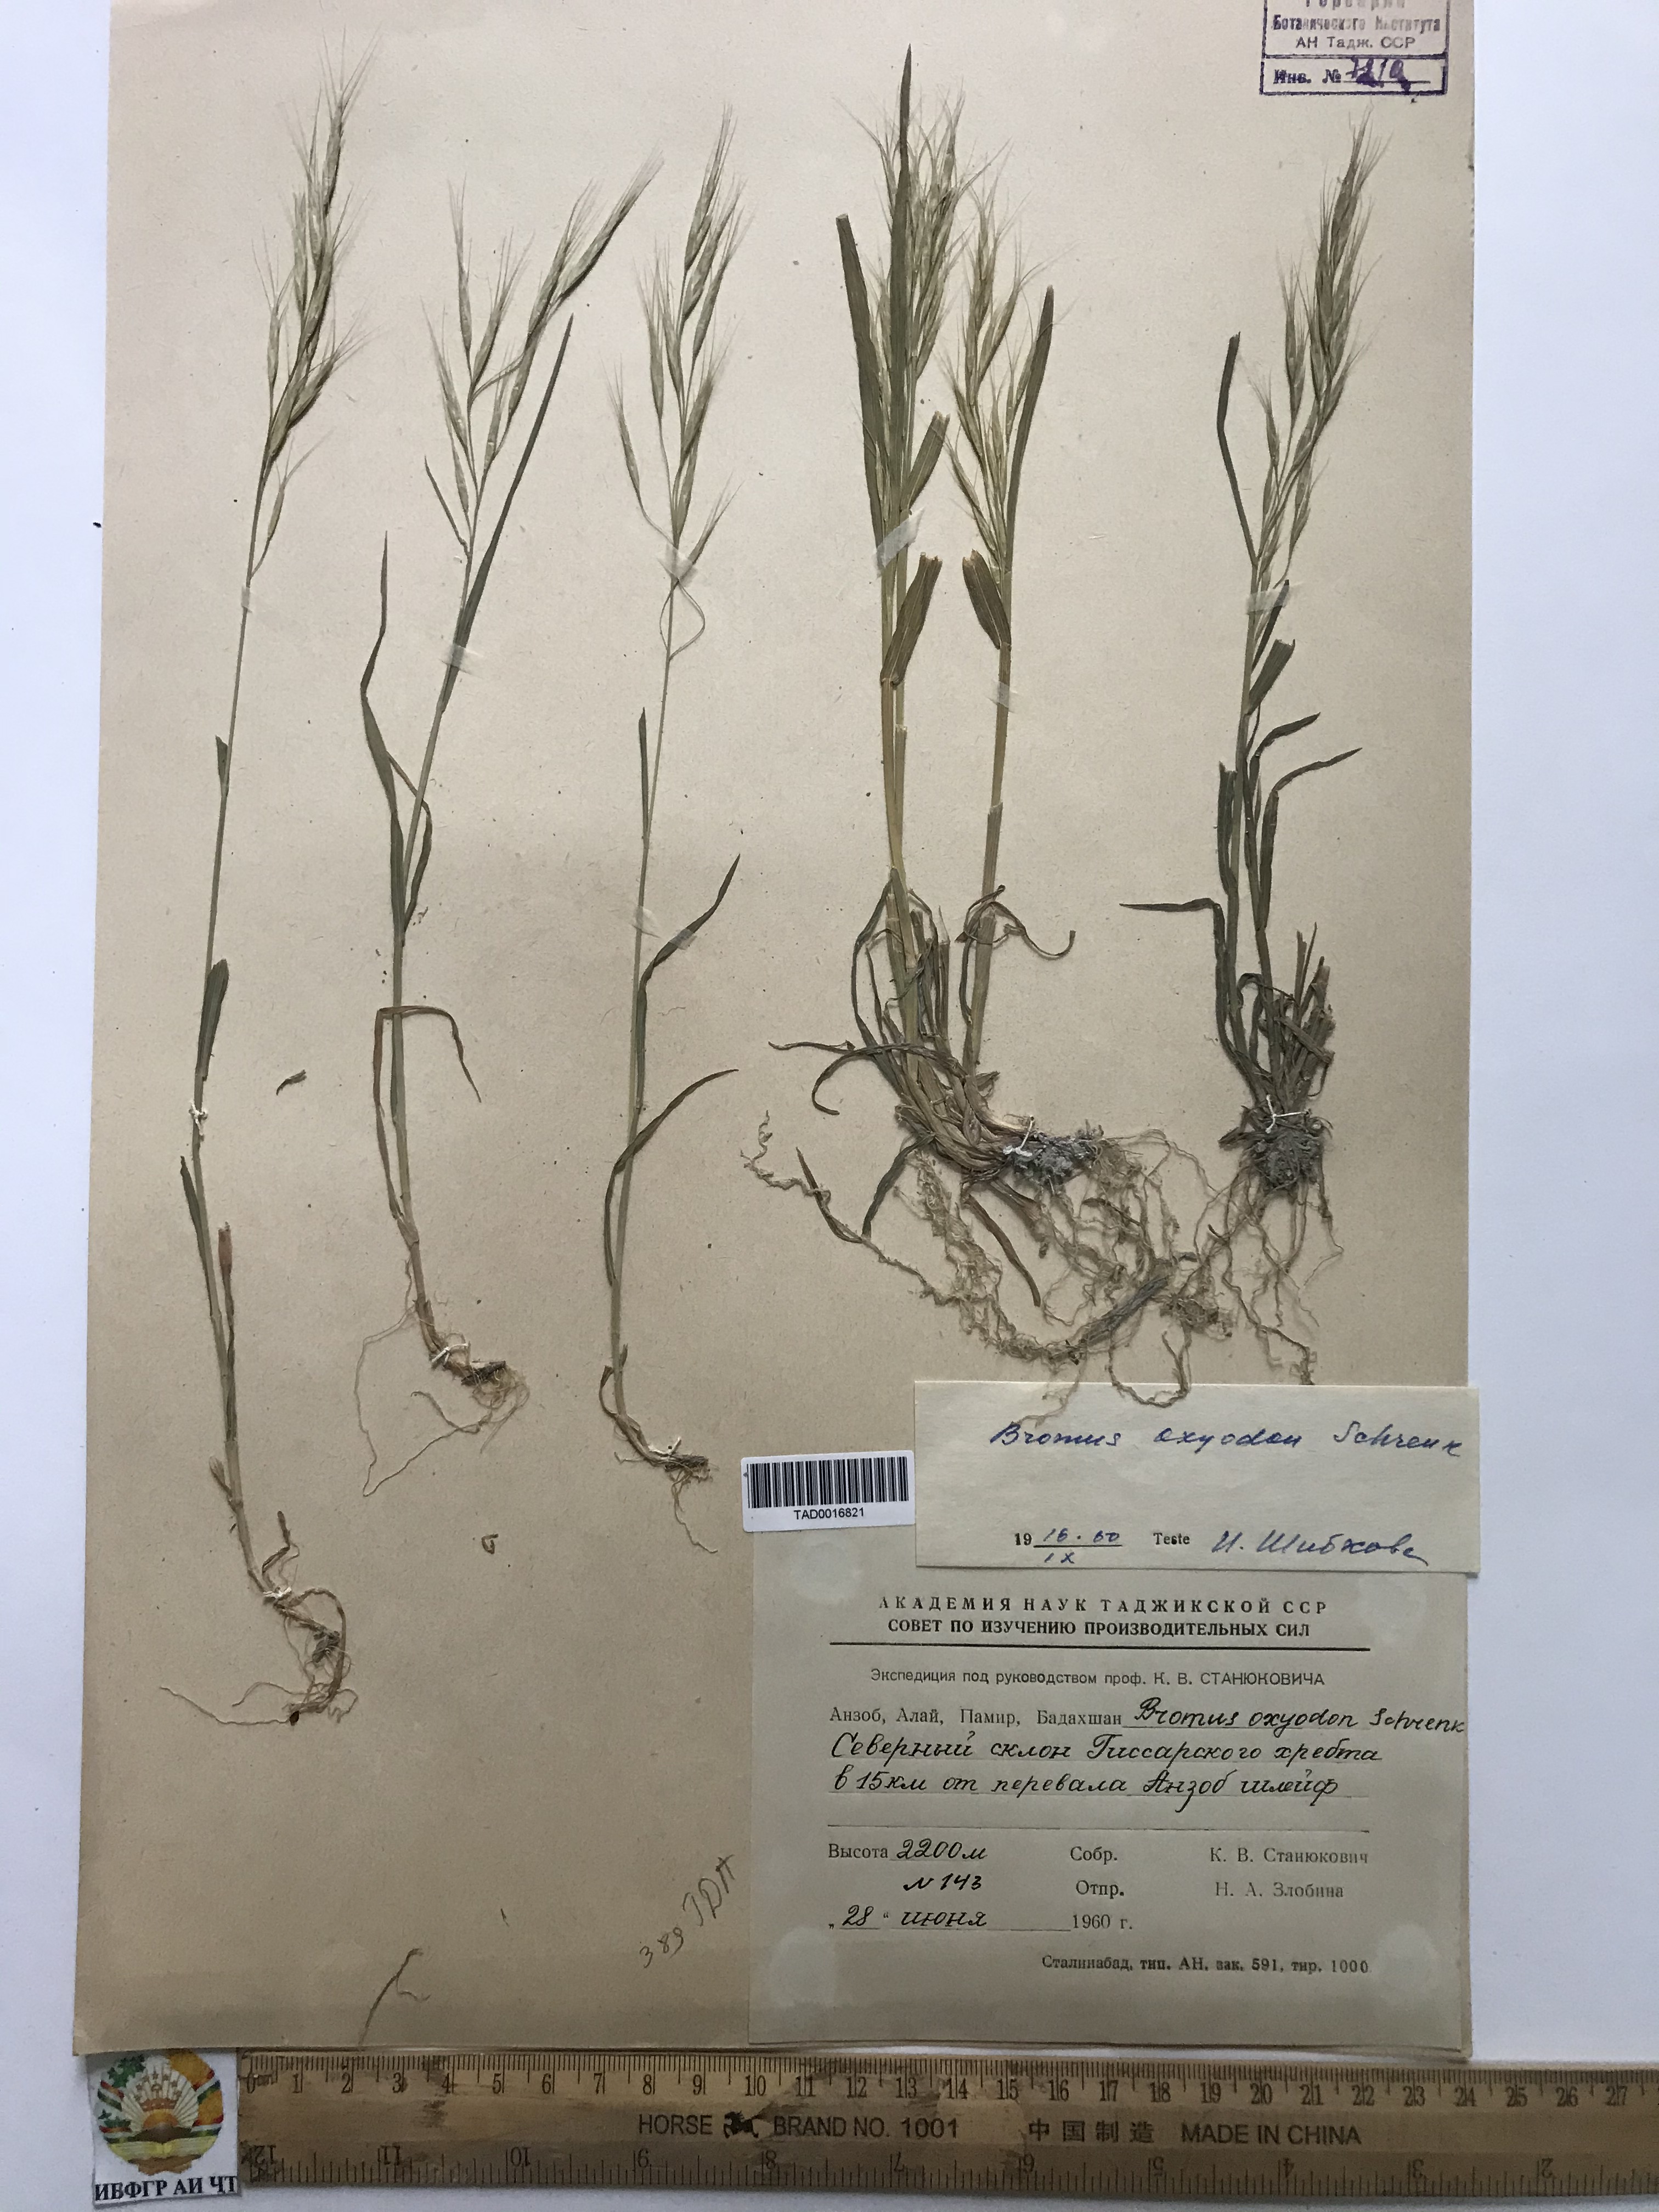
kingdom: Plantae
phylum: Tracheophyta
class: Liliopsida
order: Poales
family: Poaceae
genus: Bromus
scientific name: Bromus oxyodon
